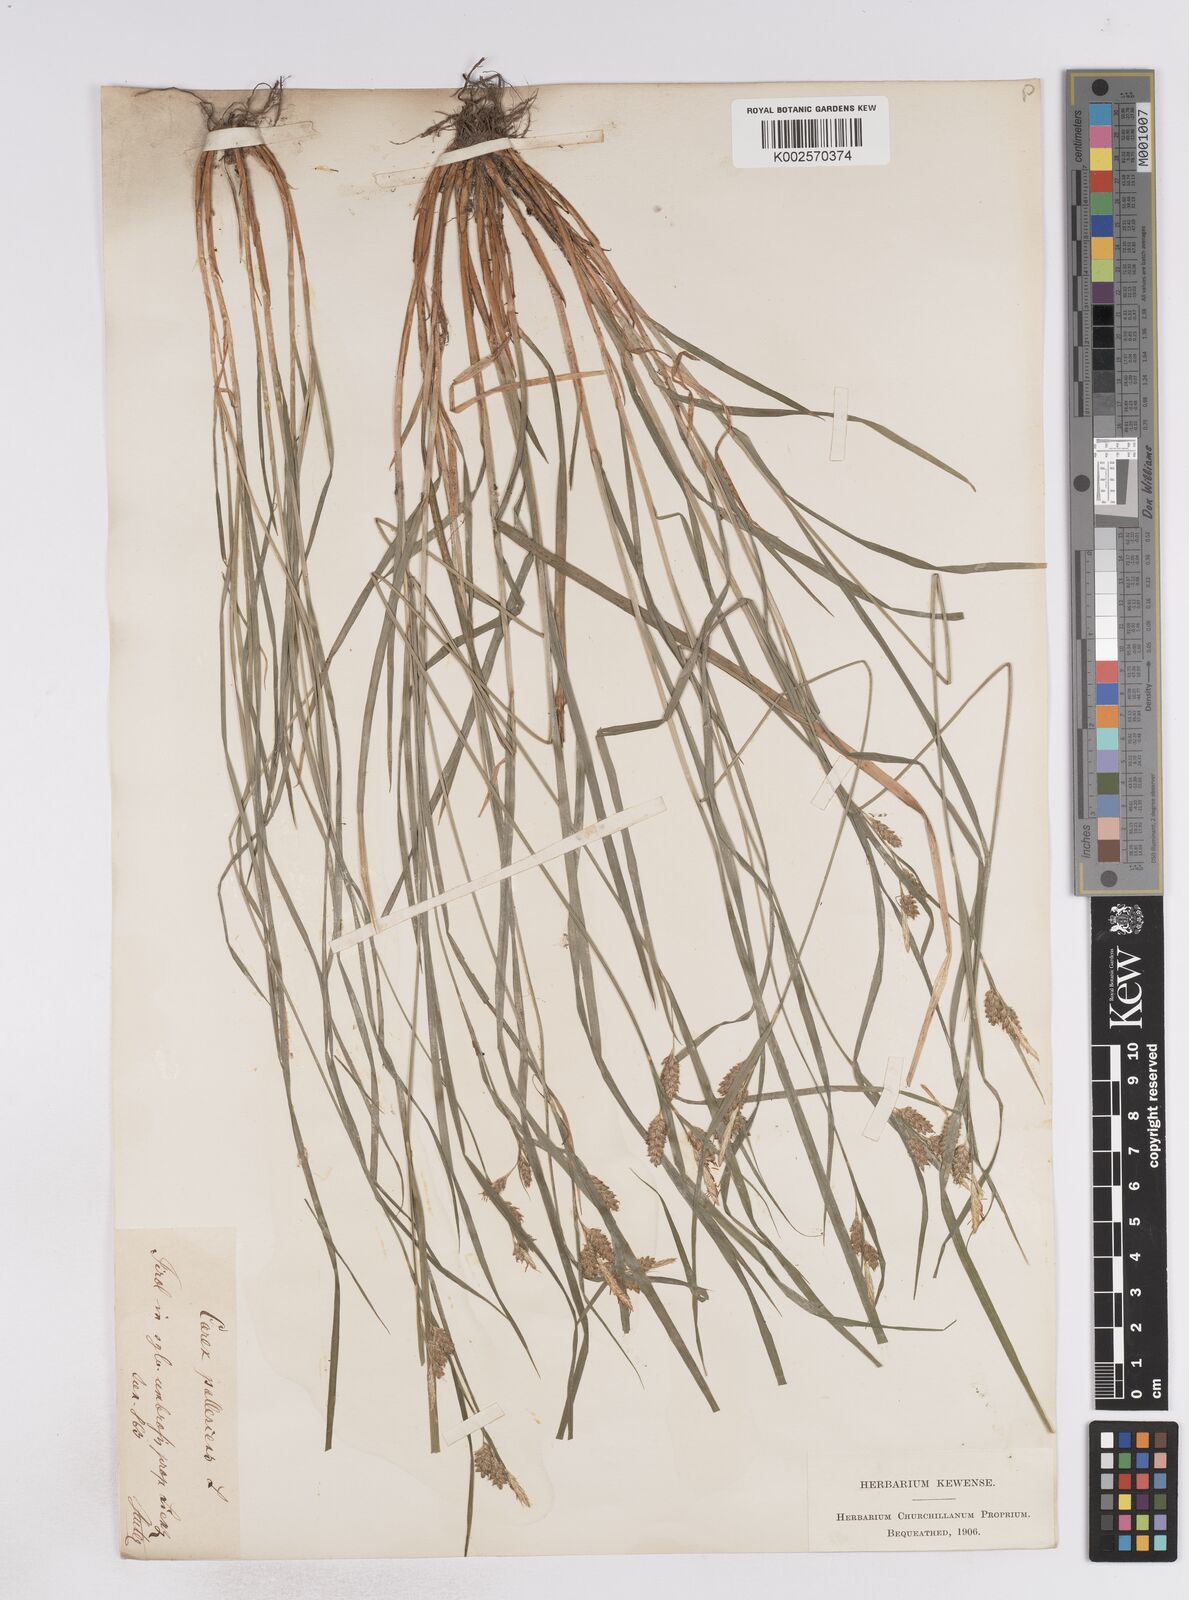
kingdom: Plantae
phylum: Tracheophyta
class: Liliopsida
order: Poales
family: Cyperaceae
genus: Carex
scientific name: Carex pallescens
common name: Pale sedge
